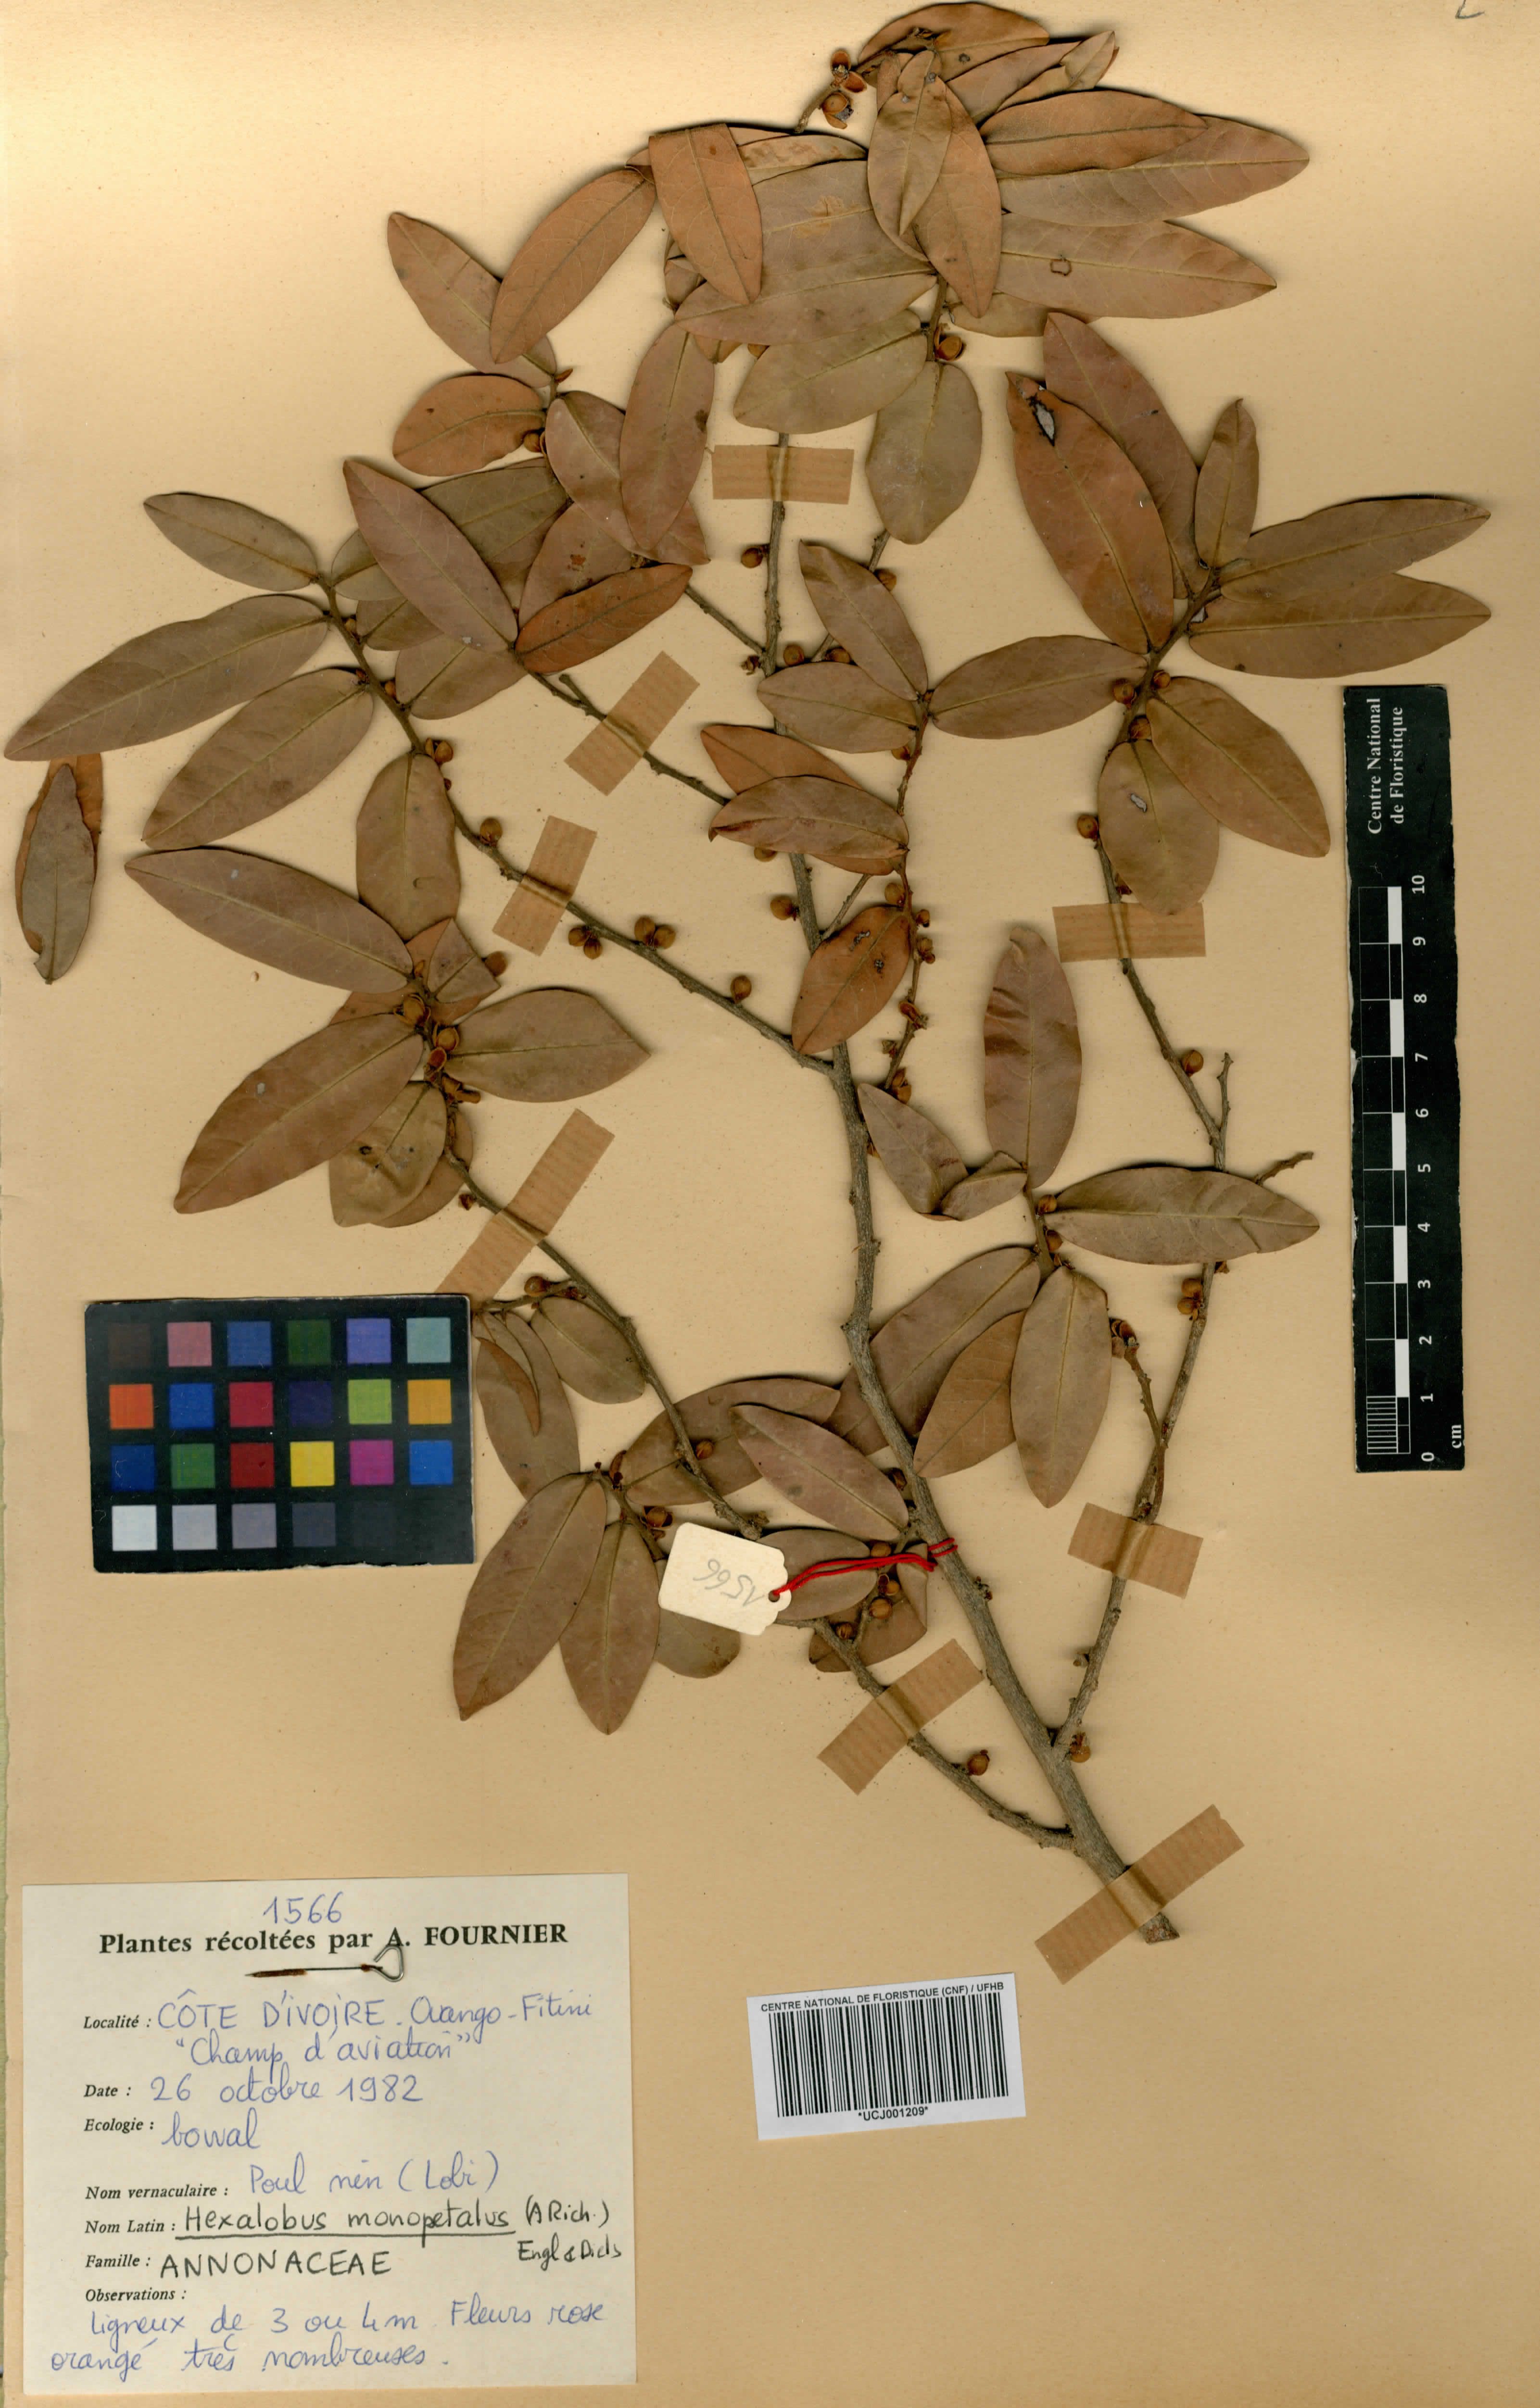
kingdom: Plantae
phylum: Tracheophyta
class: Magnoliopsida
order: Magnoliales
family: Annonaceae
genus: Hexalobus
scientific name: Hexalobus monopetalus
